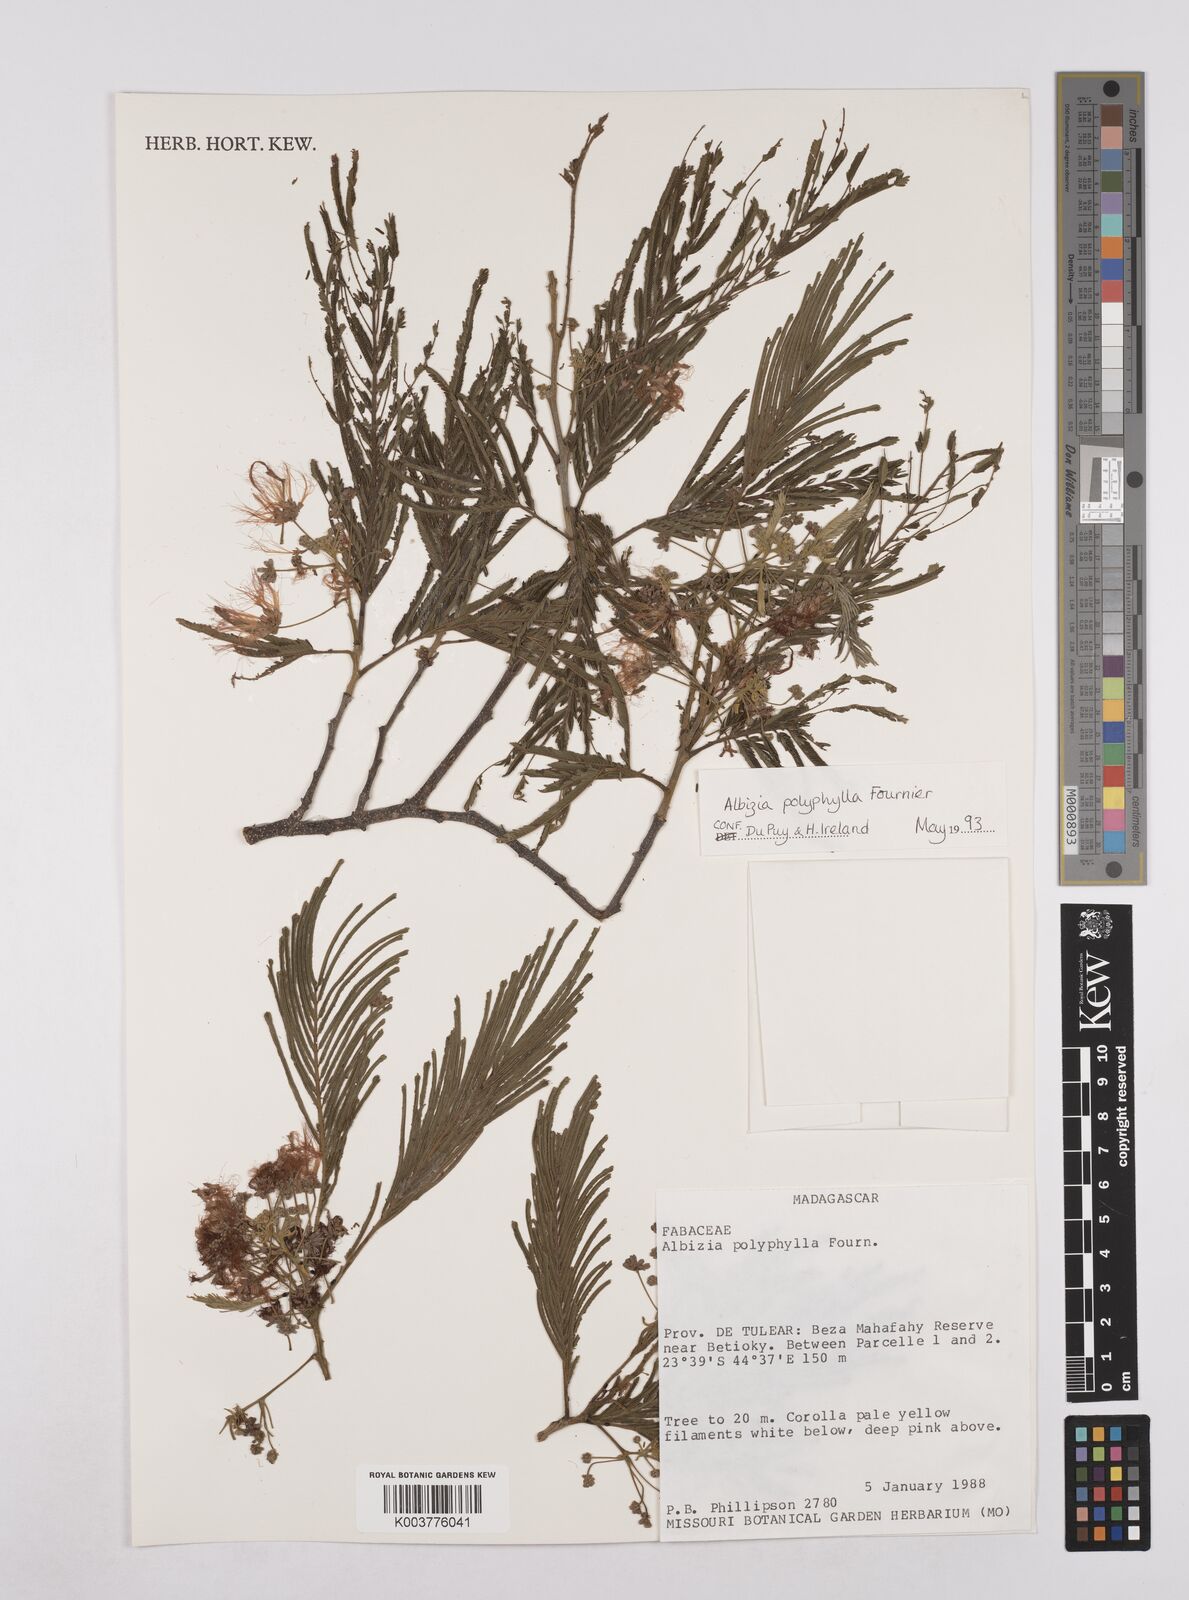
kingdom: Plantae
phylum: Tracheophyta
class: Magnoliopsida
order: Fabales
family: Fabaceae
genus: Albizia
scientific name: Albizia polyphylla
